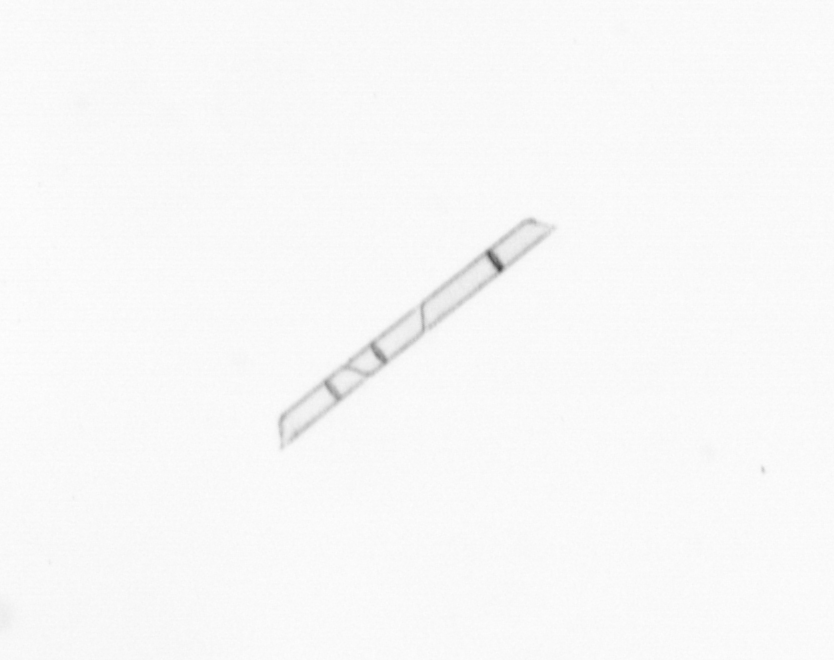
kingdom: Chromista
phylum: Ochrophyta
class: Bacillariophyceae
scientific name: Bacillariophyceae
